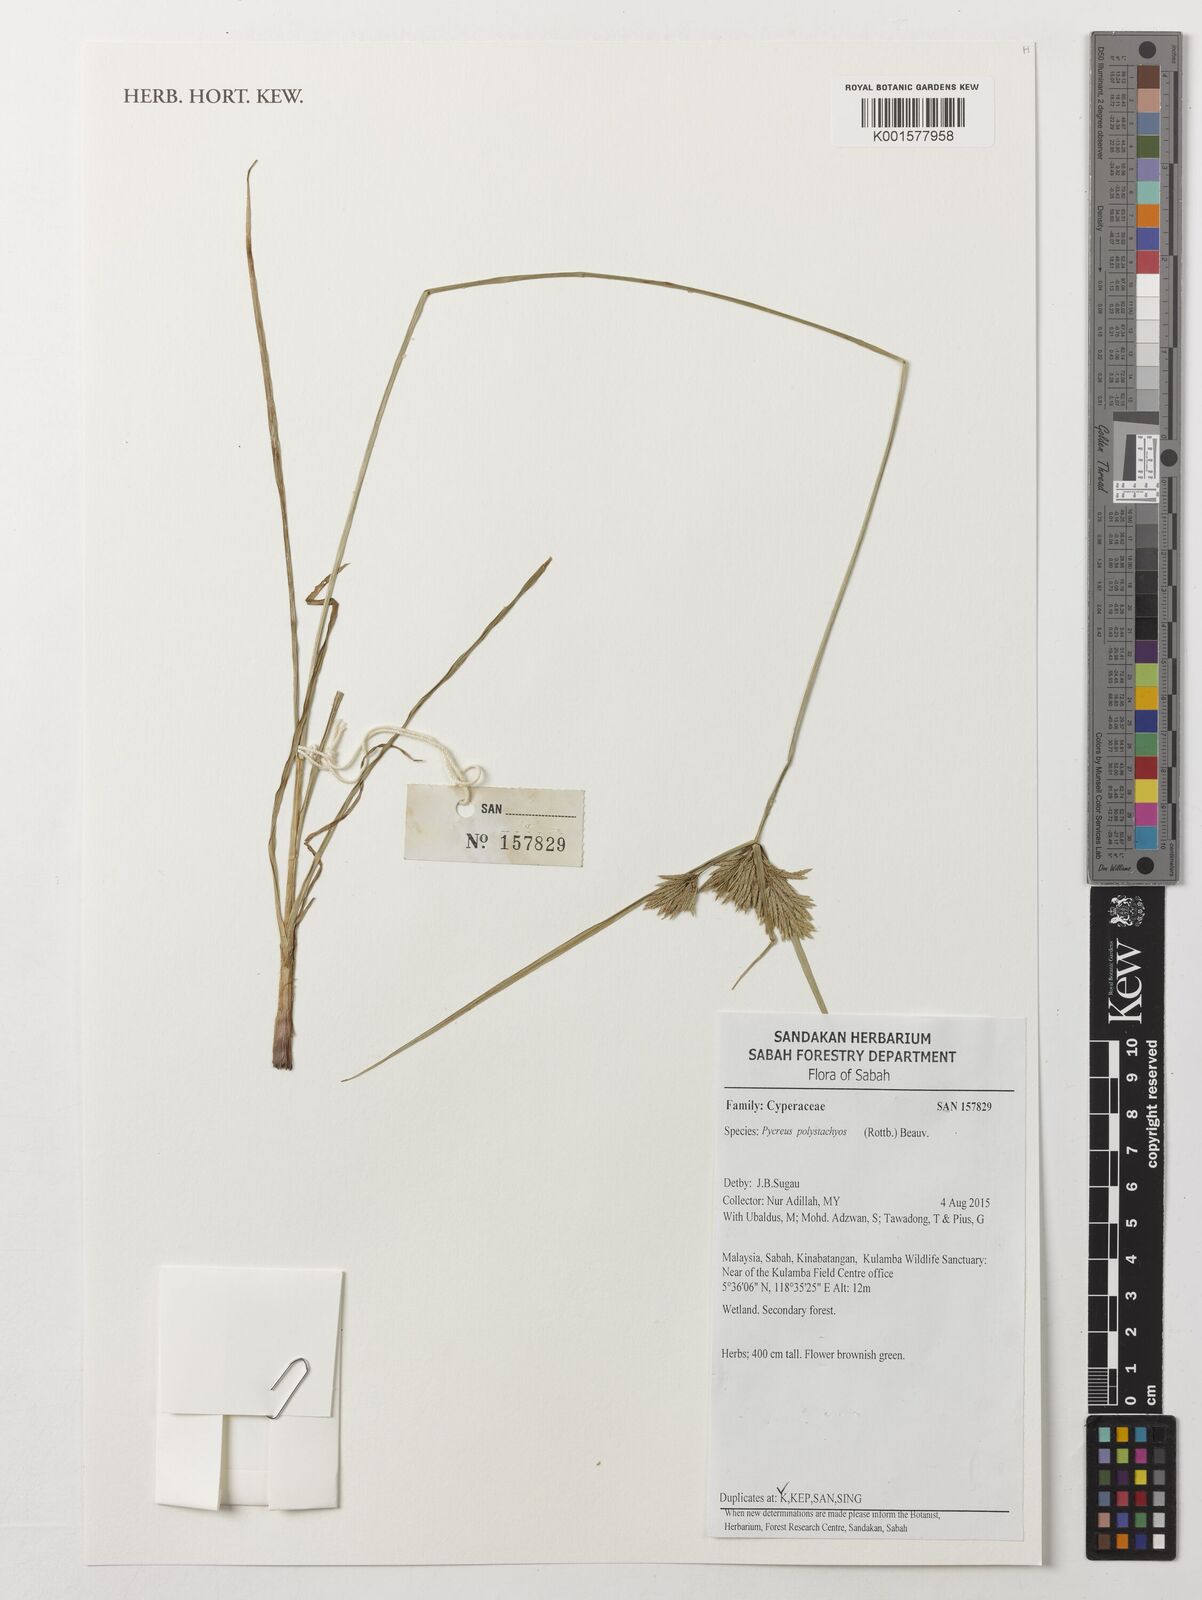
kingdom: Plantae
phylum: Tracheophyta
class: Liliopsida
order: Poales
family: Cyperaceae
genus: Cyperus
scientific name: Cyperus polystachyos
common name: Bunchy flat sedge
